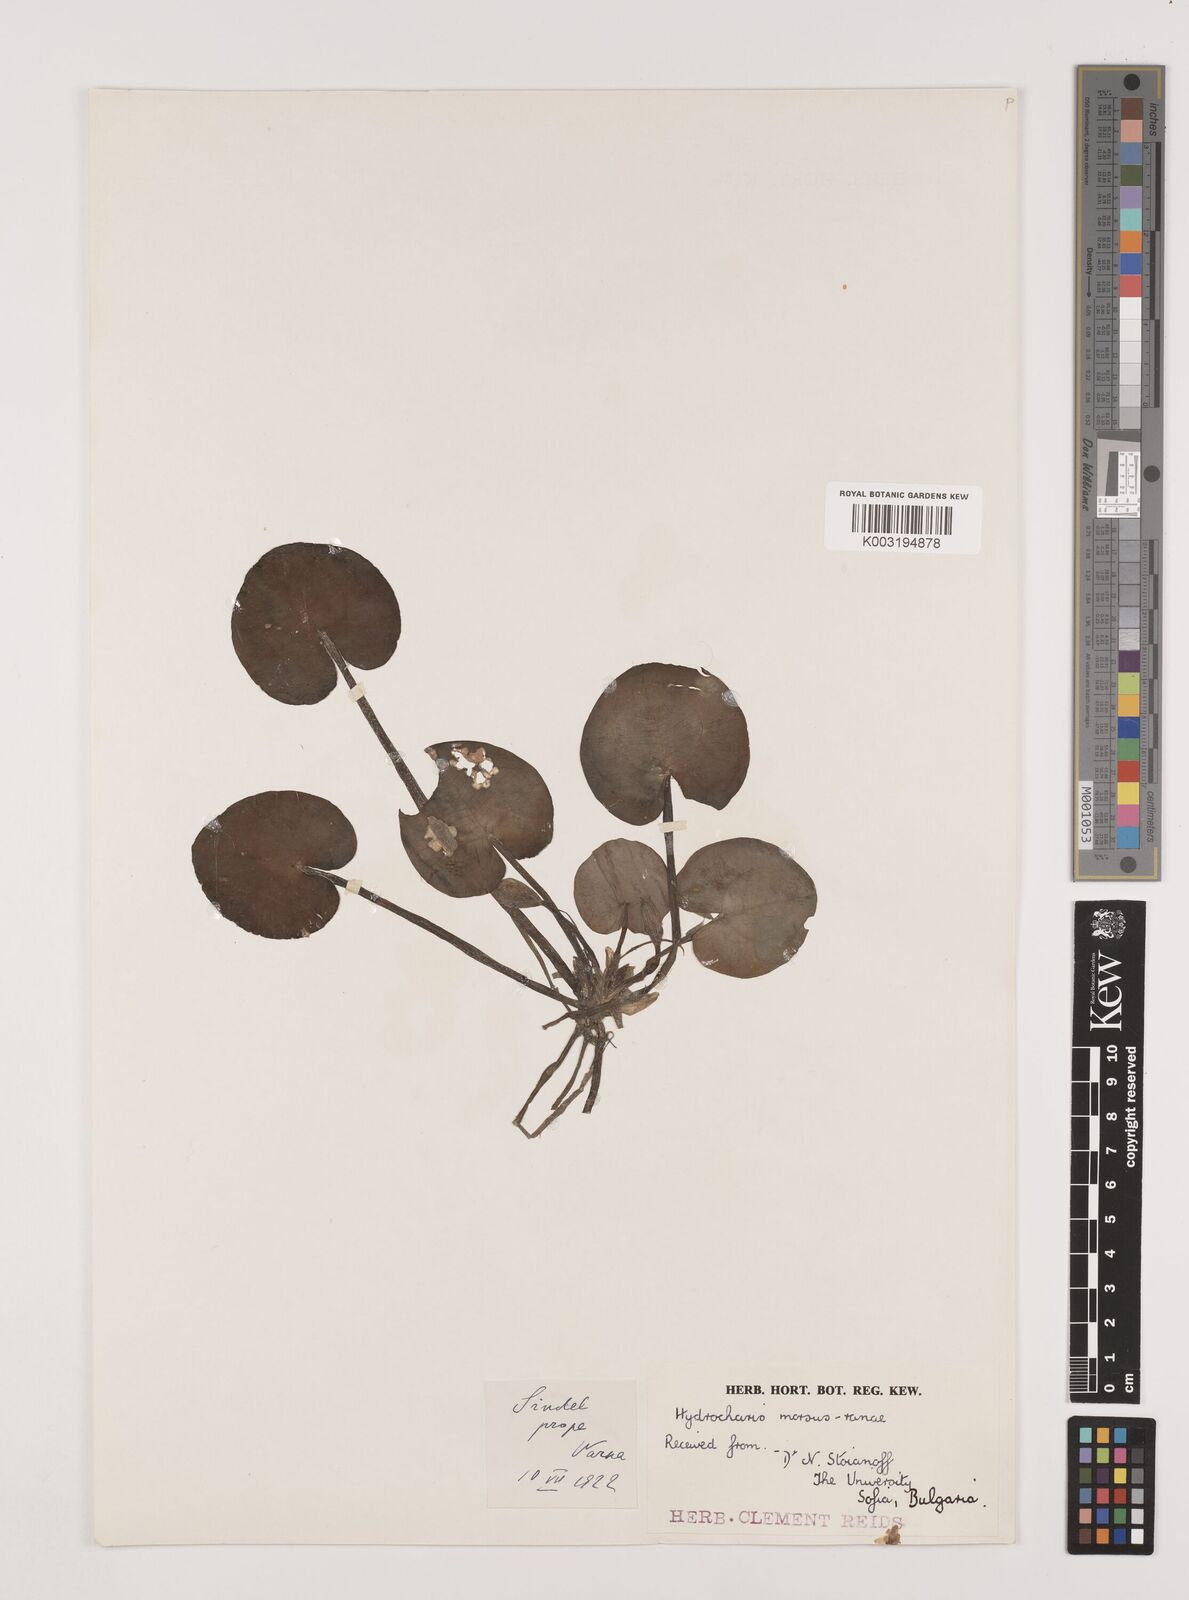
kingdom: Plantae
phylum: Tracheophyta
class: Liliopsida
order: Alismatales
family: Hydrocharitaceae
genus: Hydrocharis
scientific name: Hydrocharis morsus-ranae
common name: Frogbit
